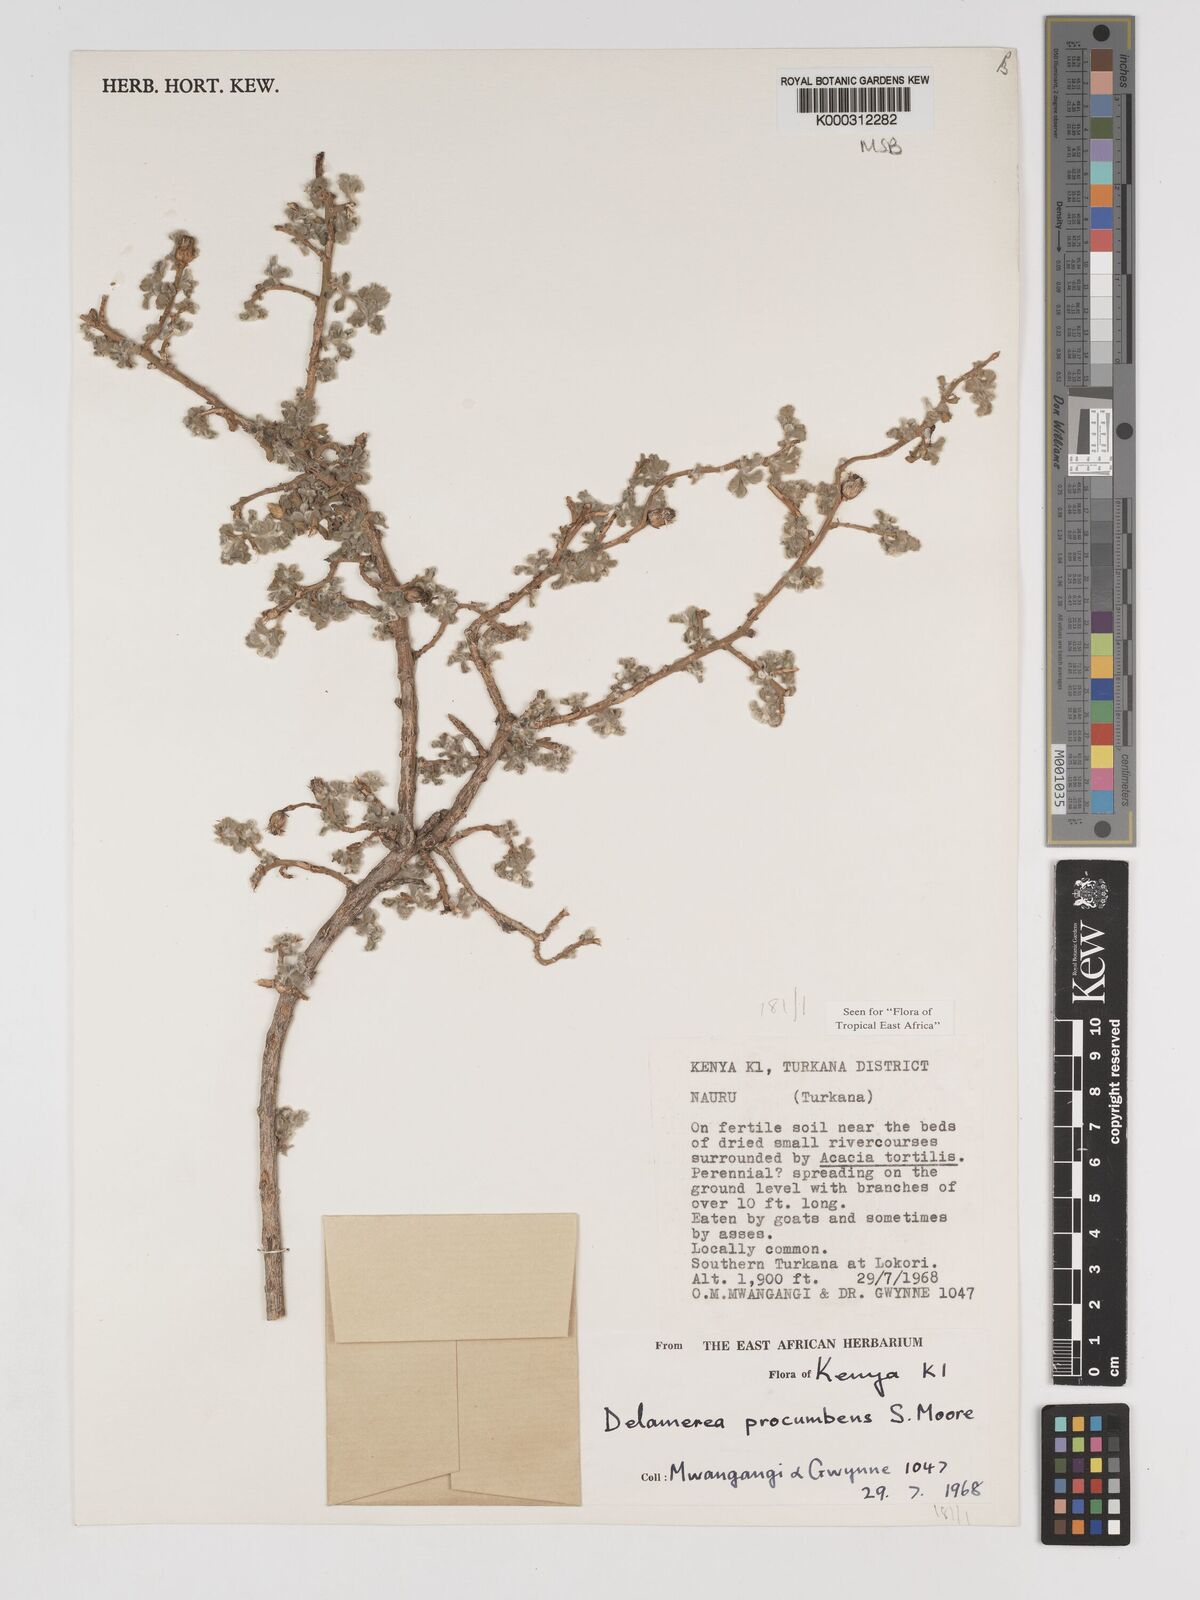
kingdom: Plantae
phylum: Tracheophyta
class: Magnoliopsida
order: Asterales
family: Asteraceae
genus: Delamerea
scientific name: Delamerea procumbens
